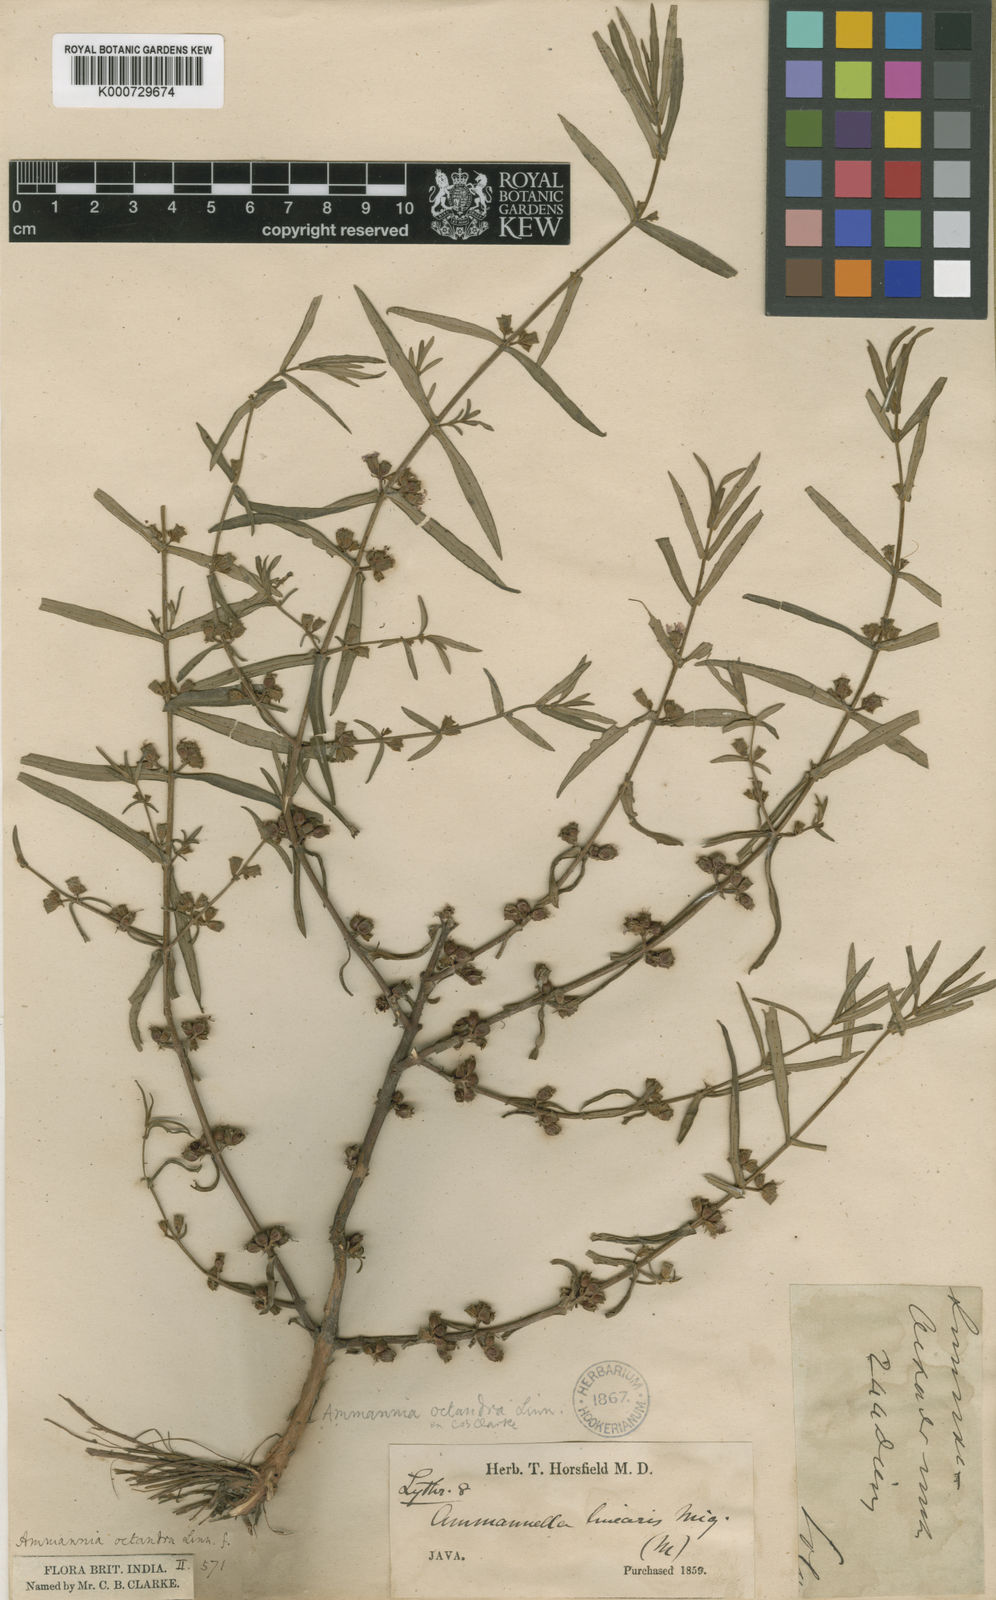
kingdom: Plantae
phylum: Tracheophyta
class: Magnoliopsida
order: Myrtales
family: Lythraceae
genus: Ammannia
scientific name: Ammannia octandra
